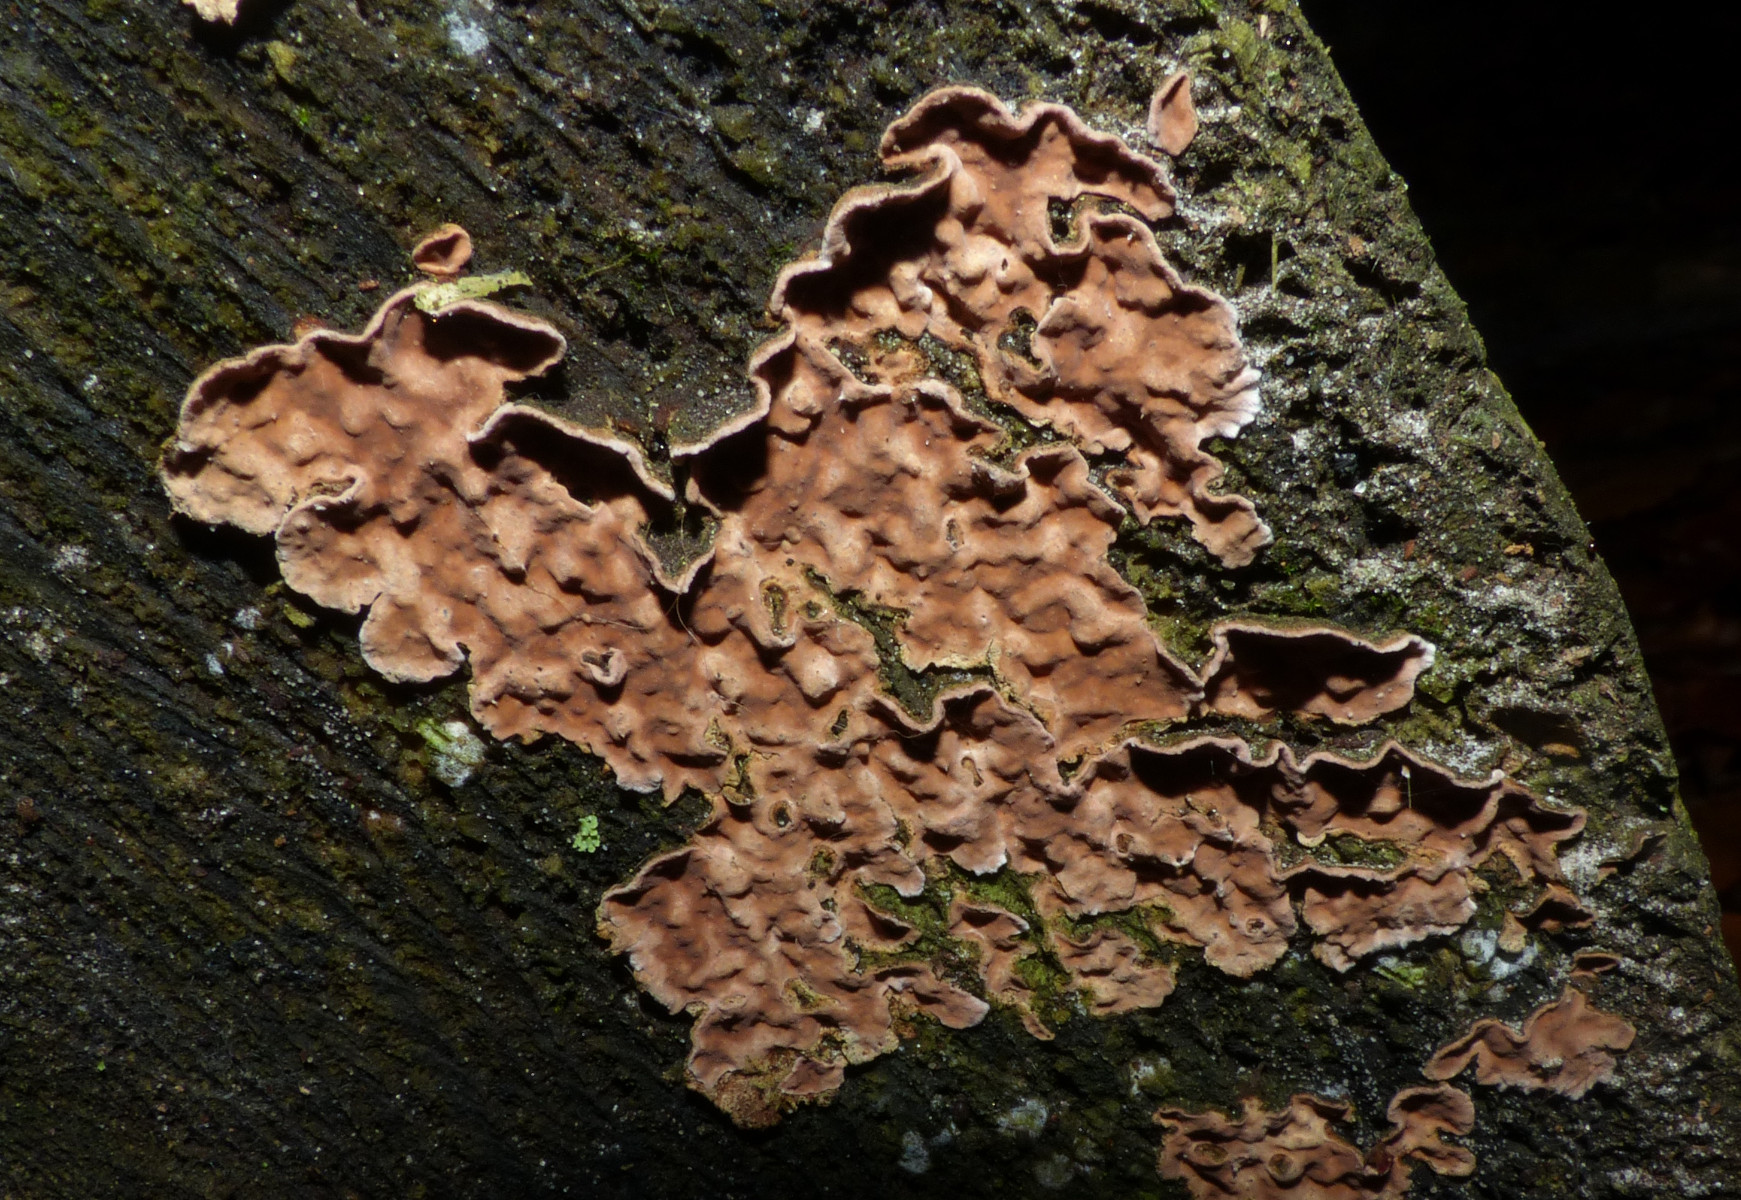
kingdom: Fungi
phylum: Basidiomycota
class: Agaricomycetes
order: Russulales
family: Echinodontiaceae
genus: Amylostereum
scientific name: Amylostereum chailletii
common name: gran-lædersvamp
